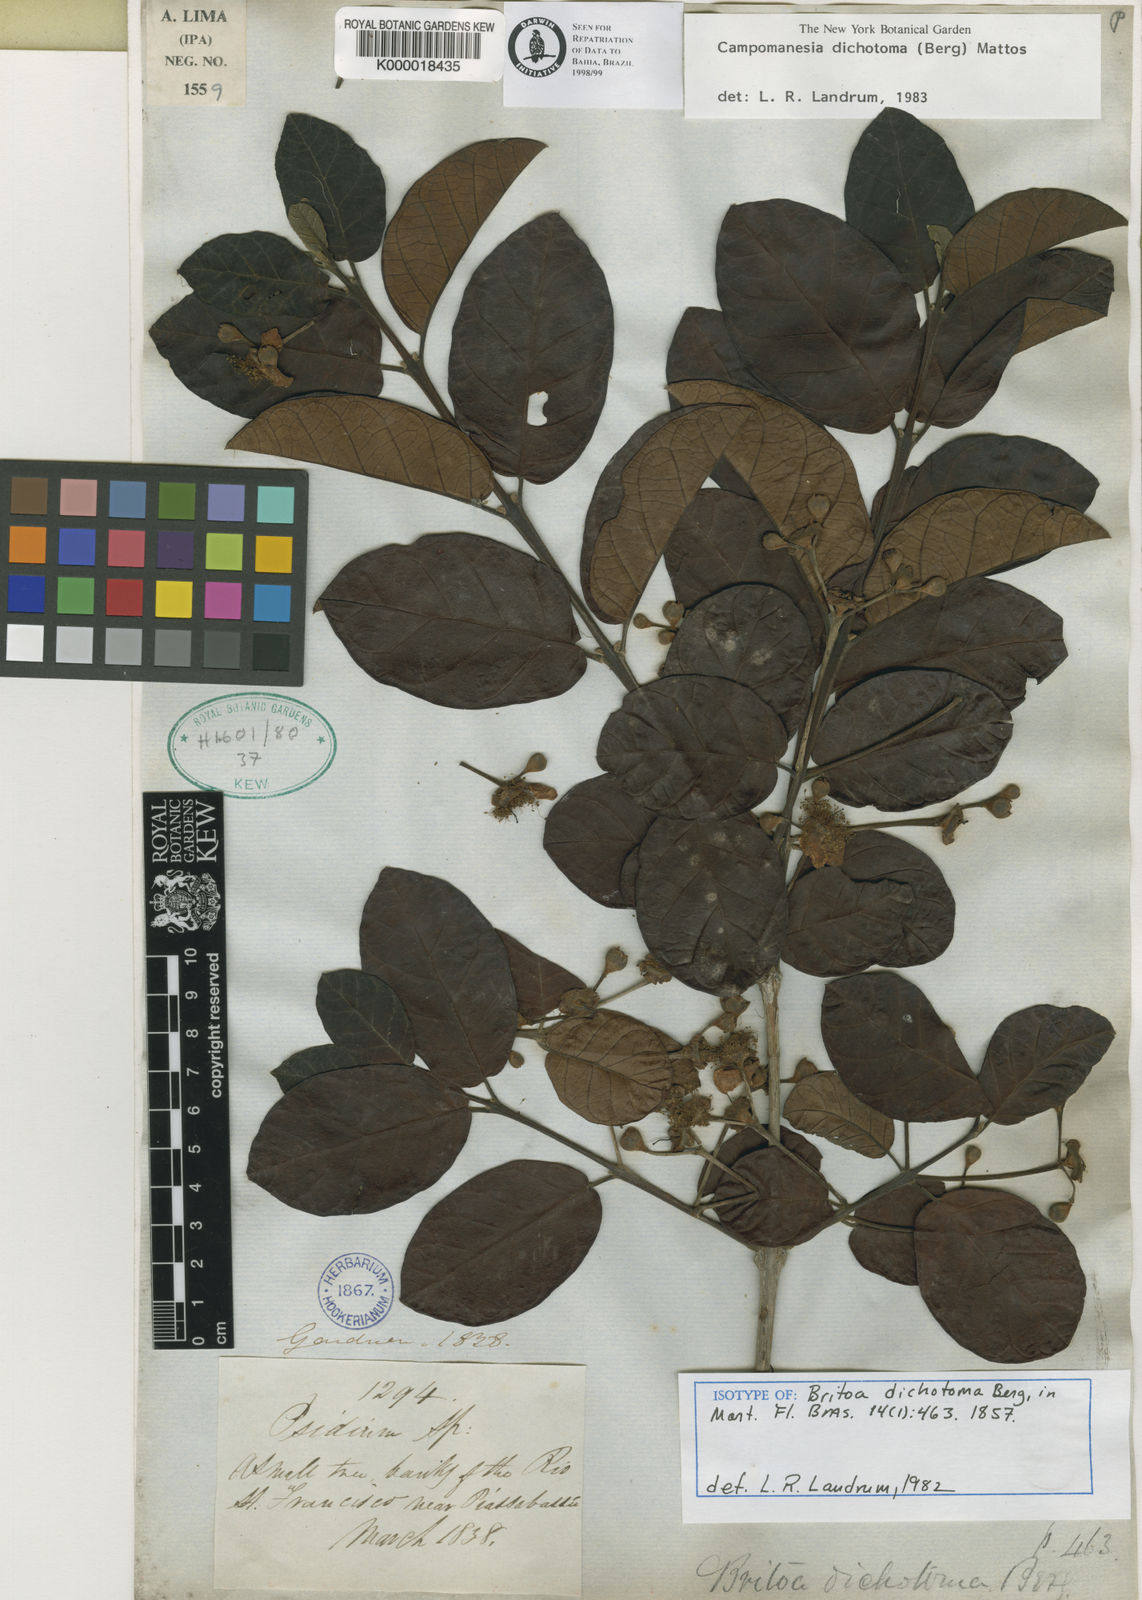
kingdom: Plantae
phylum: Tracheophyta
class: Magnoliopsida
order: Myrtales
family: Myrtaceae
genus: Campomanesia
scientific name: Campomanesia dichotoma
